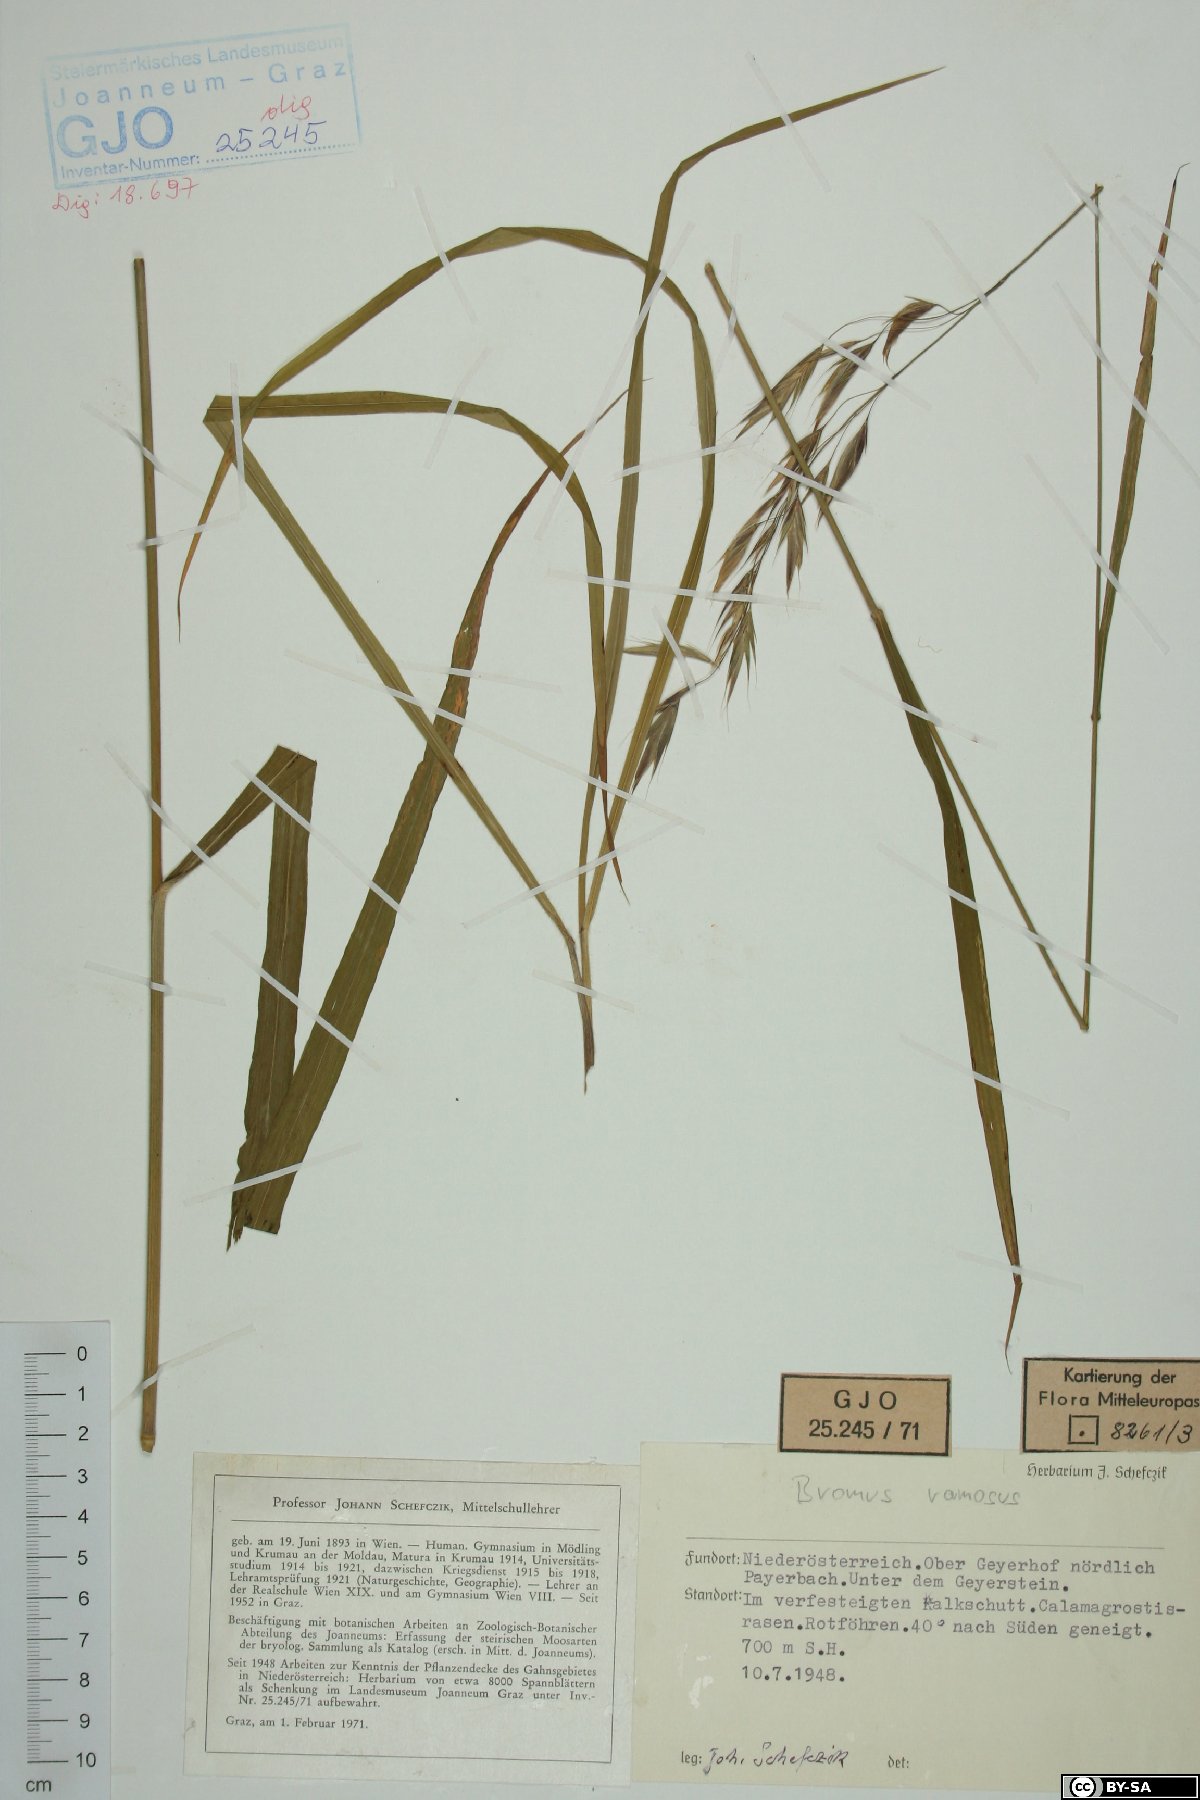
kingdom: Plantae
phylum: Tracheophyta
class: Liliopsida
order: Poales
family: Poaceae
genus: Bromus
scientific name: Bromus ramosus
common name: Hairy brome
